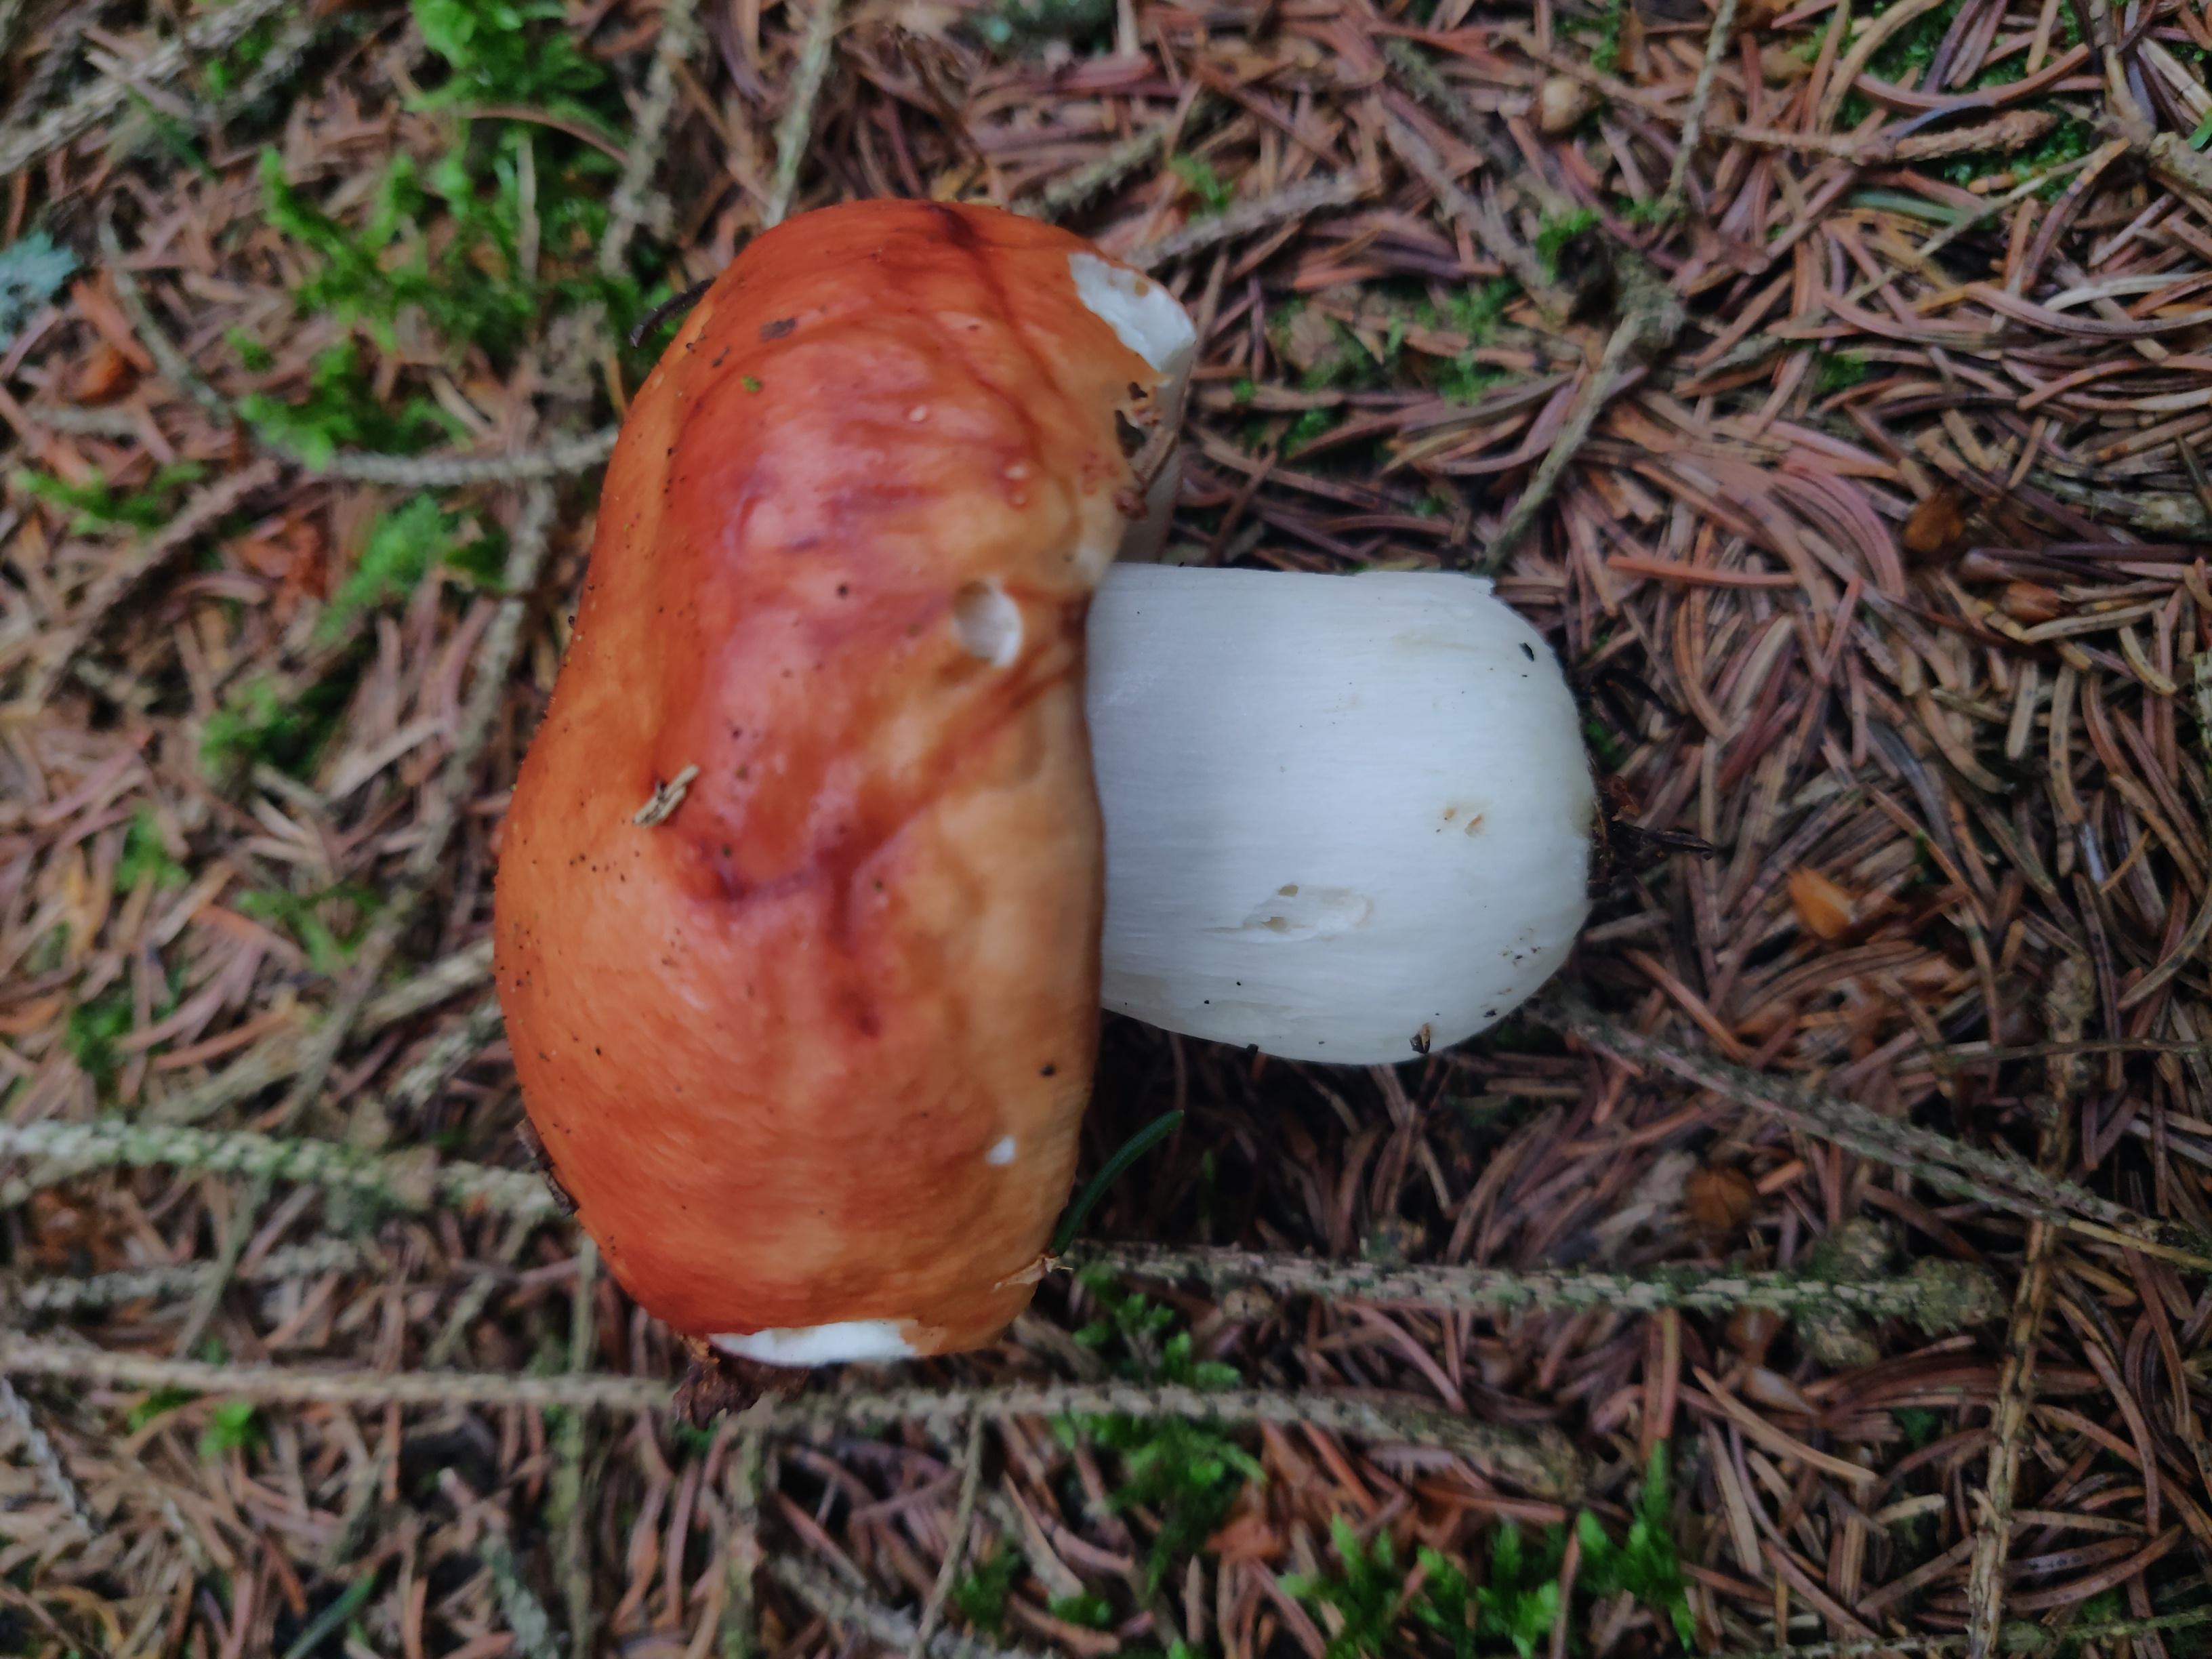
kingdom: Fungi
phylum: Basidiomycota
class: Agaricomycetes
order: Russulales
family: Russulaceae
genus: Russula
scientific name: Russula paludosa
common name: prægtig skørhat
